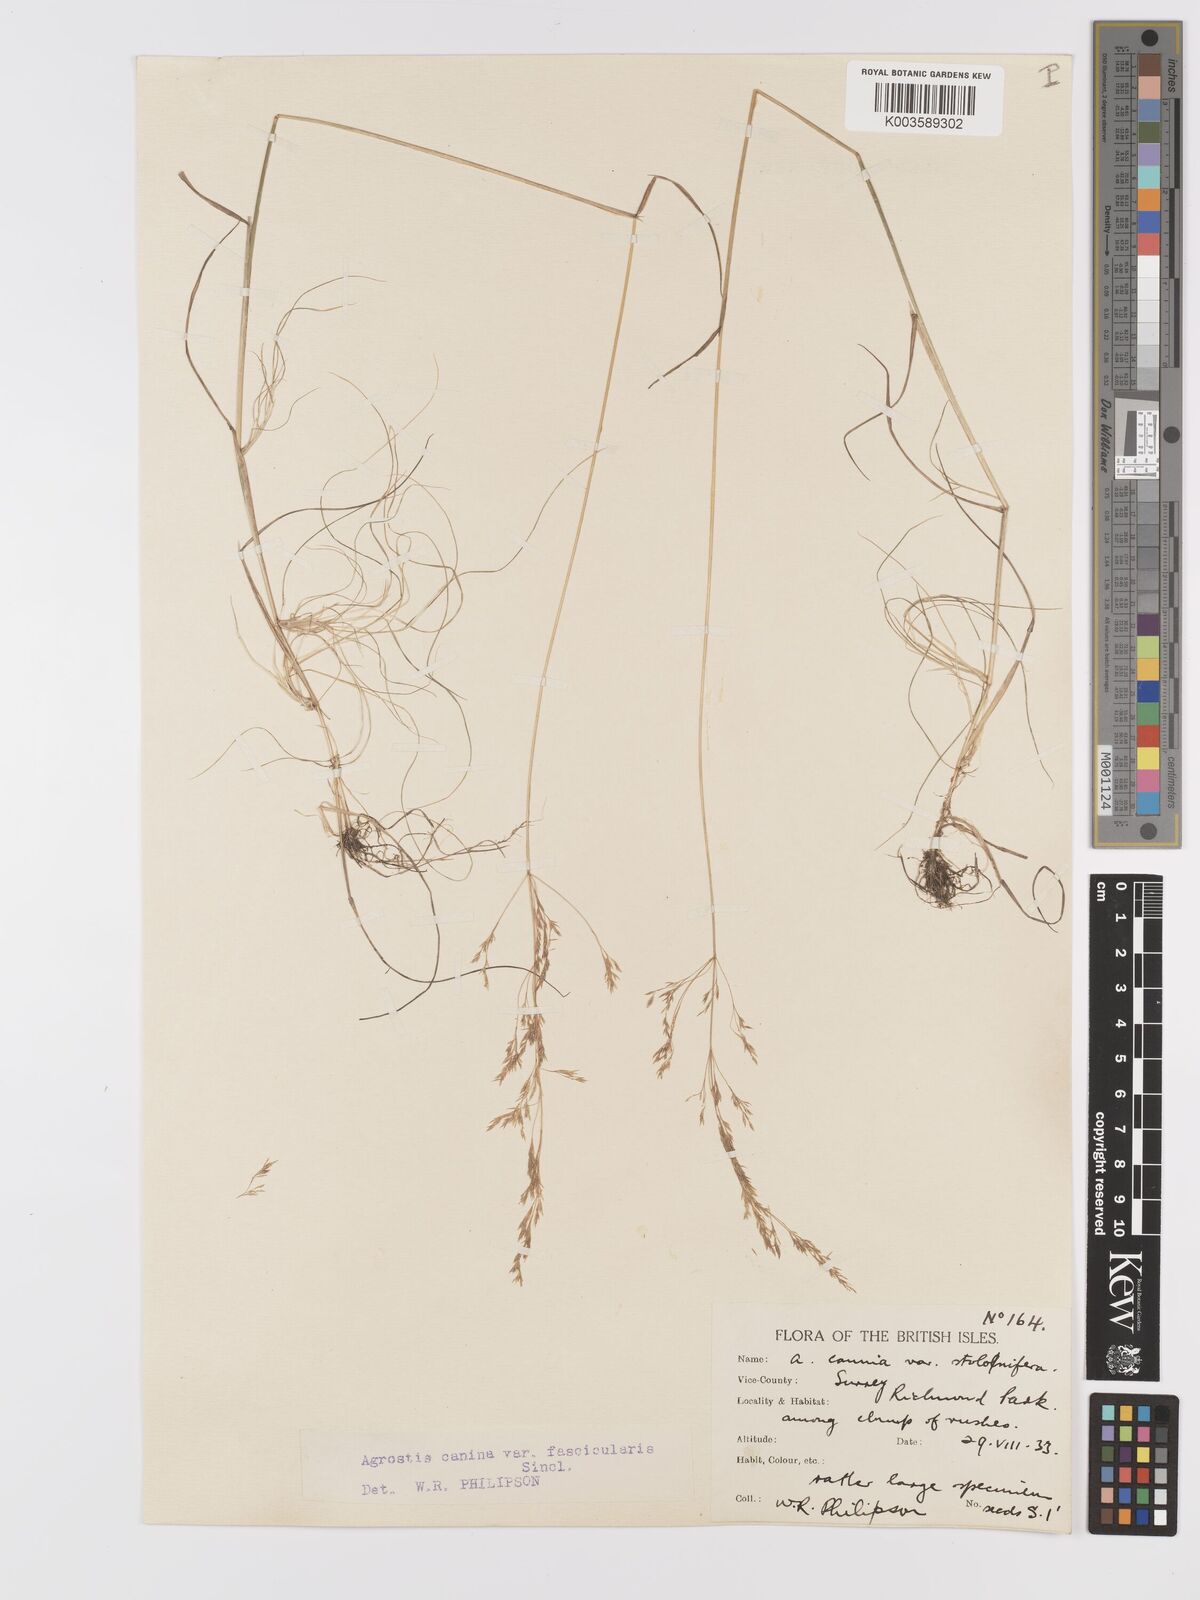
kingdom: Plantae
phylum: Tracheophyta
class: Liliopsida
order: Poales
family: Poaceae
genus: Agrostis
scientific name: Agrostis canina
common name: Velvet bent
